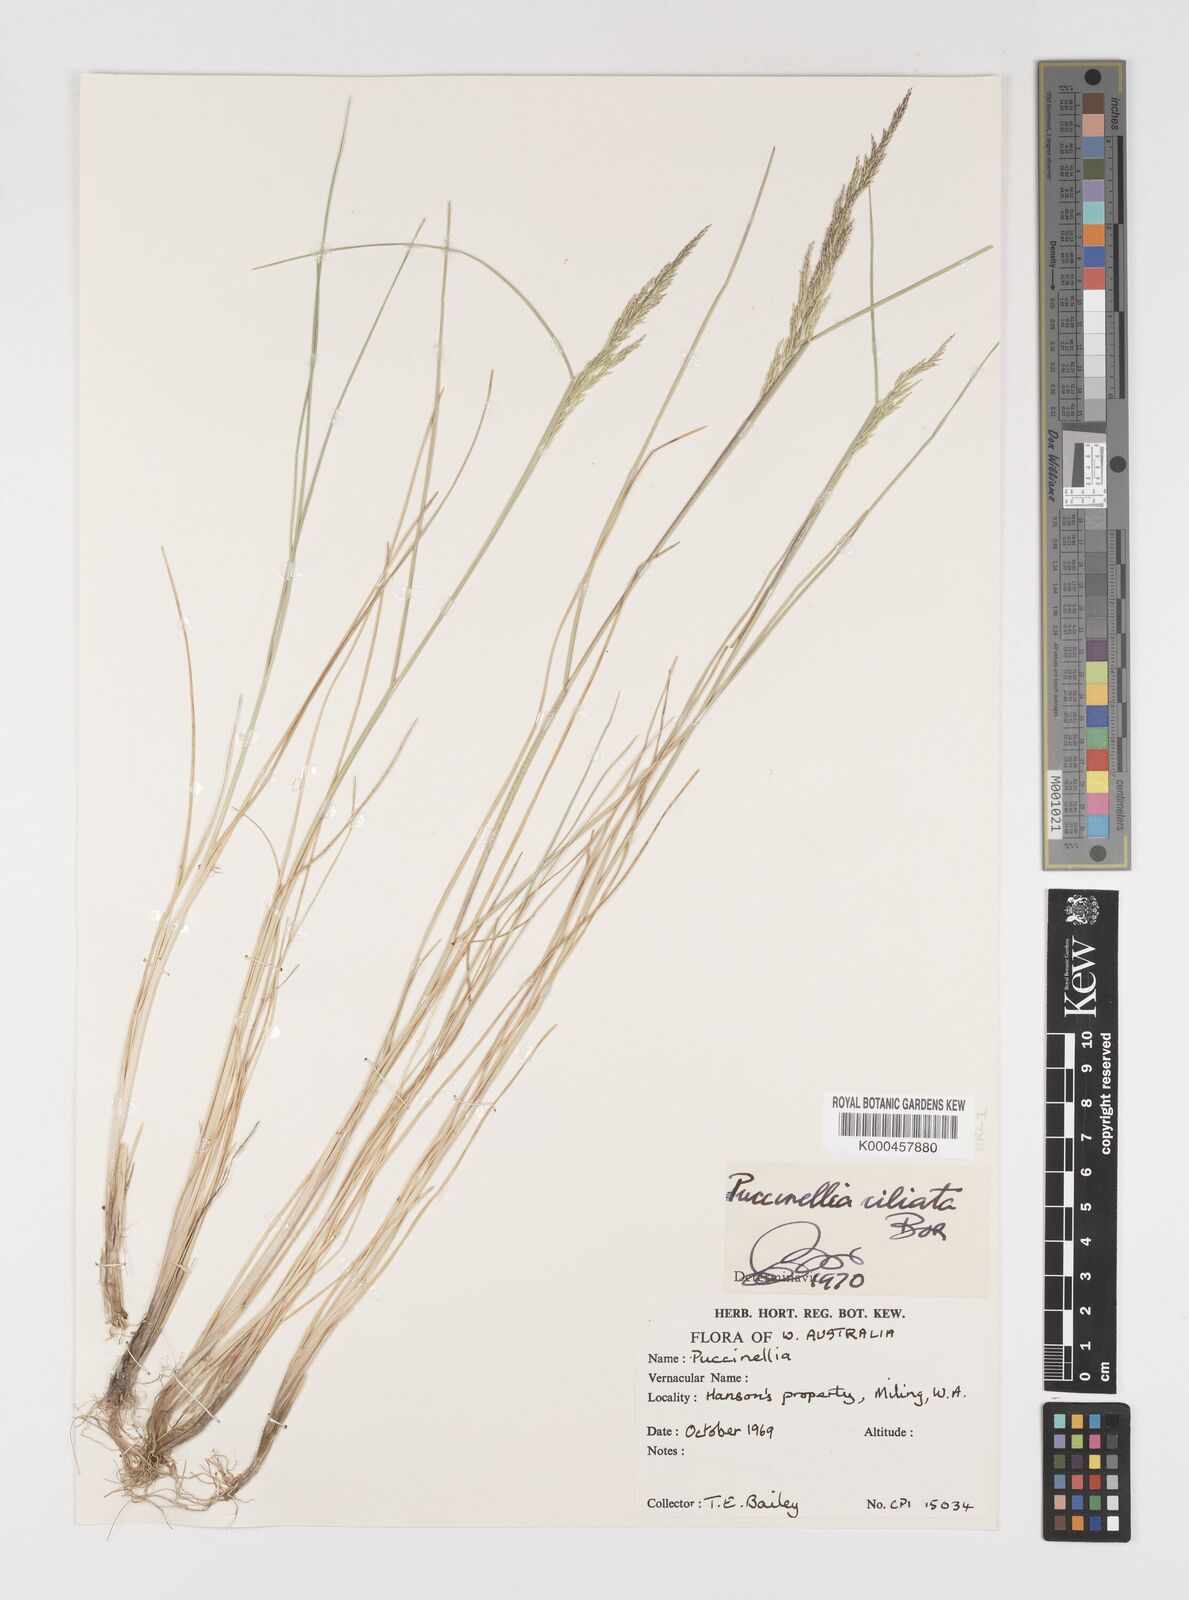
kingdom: Plantae
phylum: Tracheophyta
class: Liliopsida
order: Poales
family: Poaceae
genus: Puccinellia
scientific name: Puccinellia ciliata
